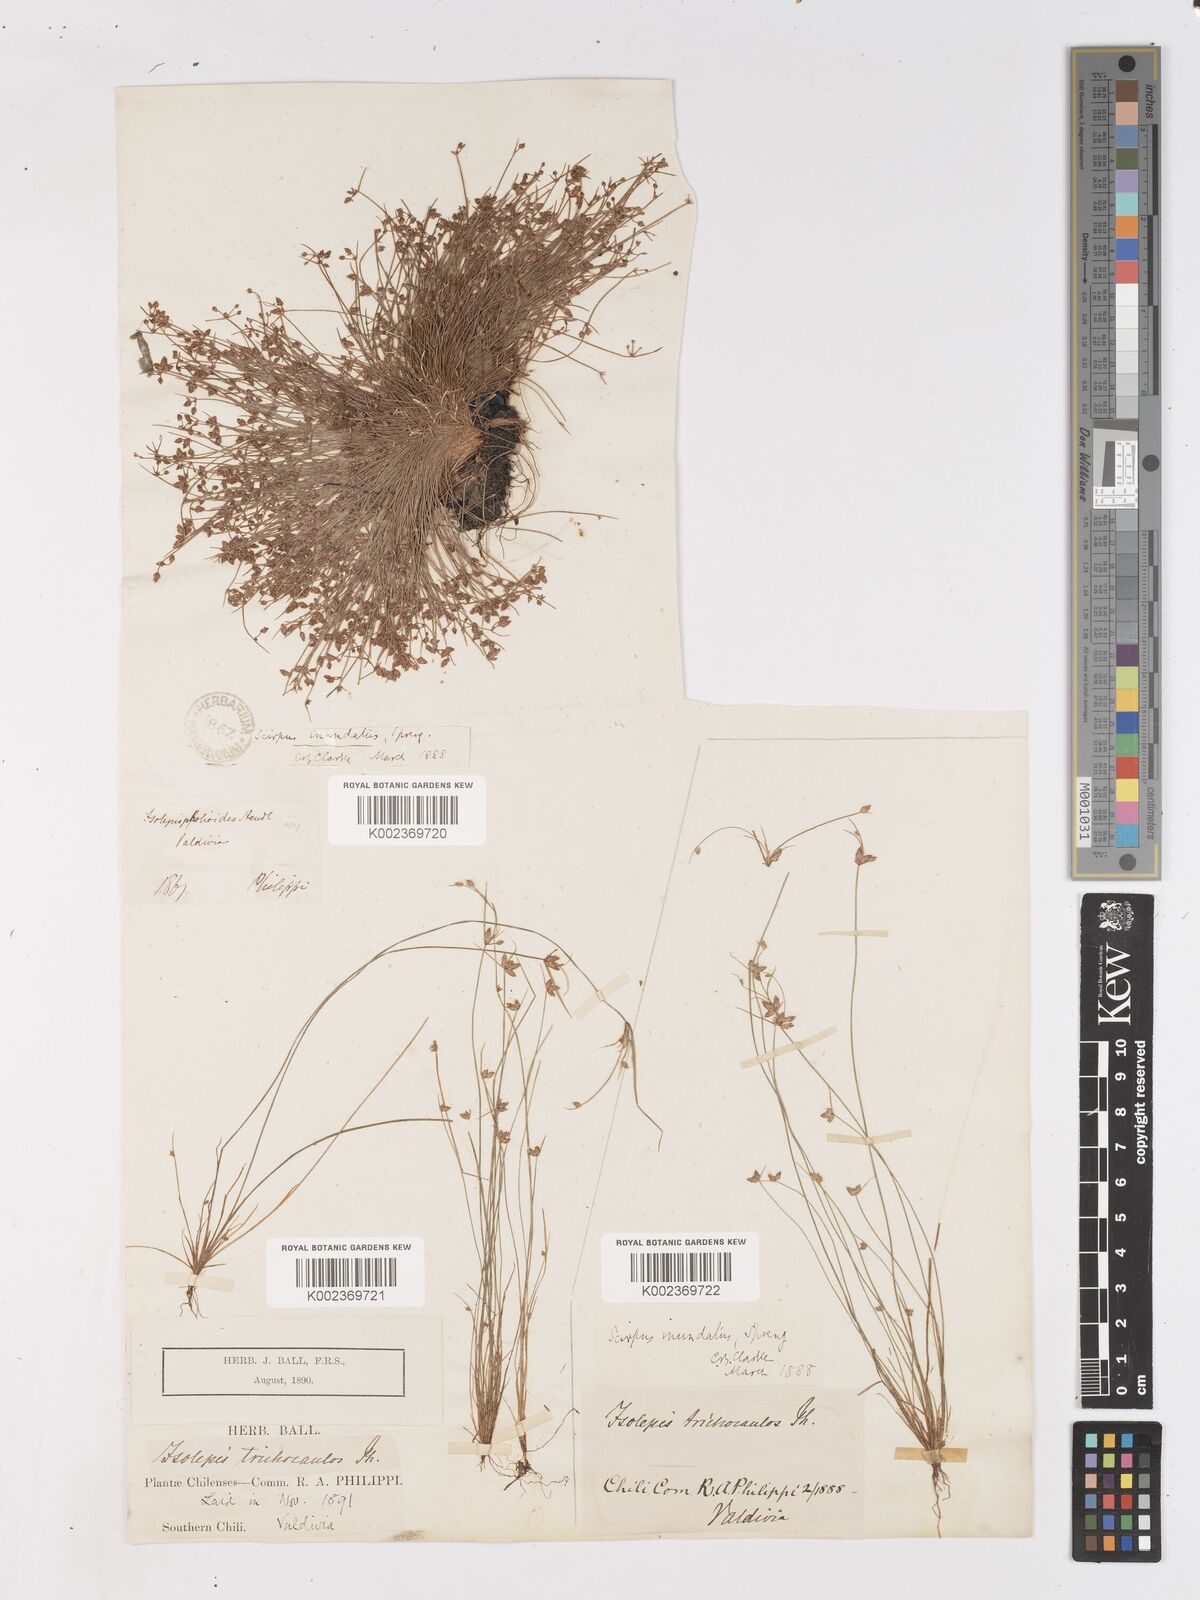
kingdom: Plantae
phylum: Tracheophyta
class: Liliopsida
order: Poales
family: Cyperaceae
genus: Isolepis
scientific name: Isolepis inundata
